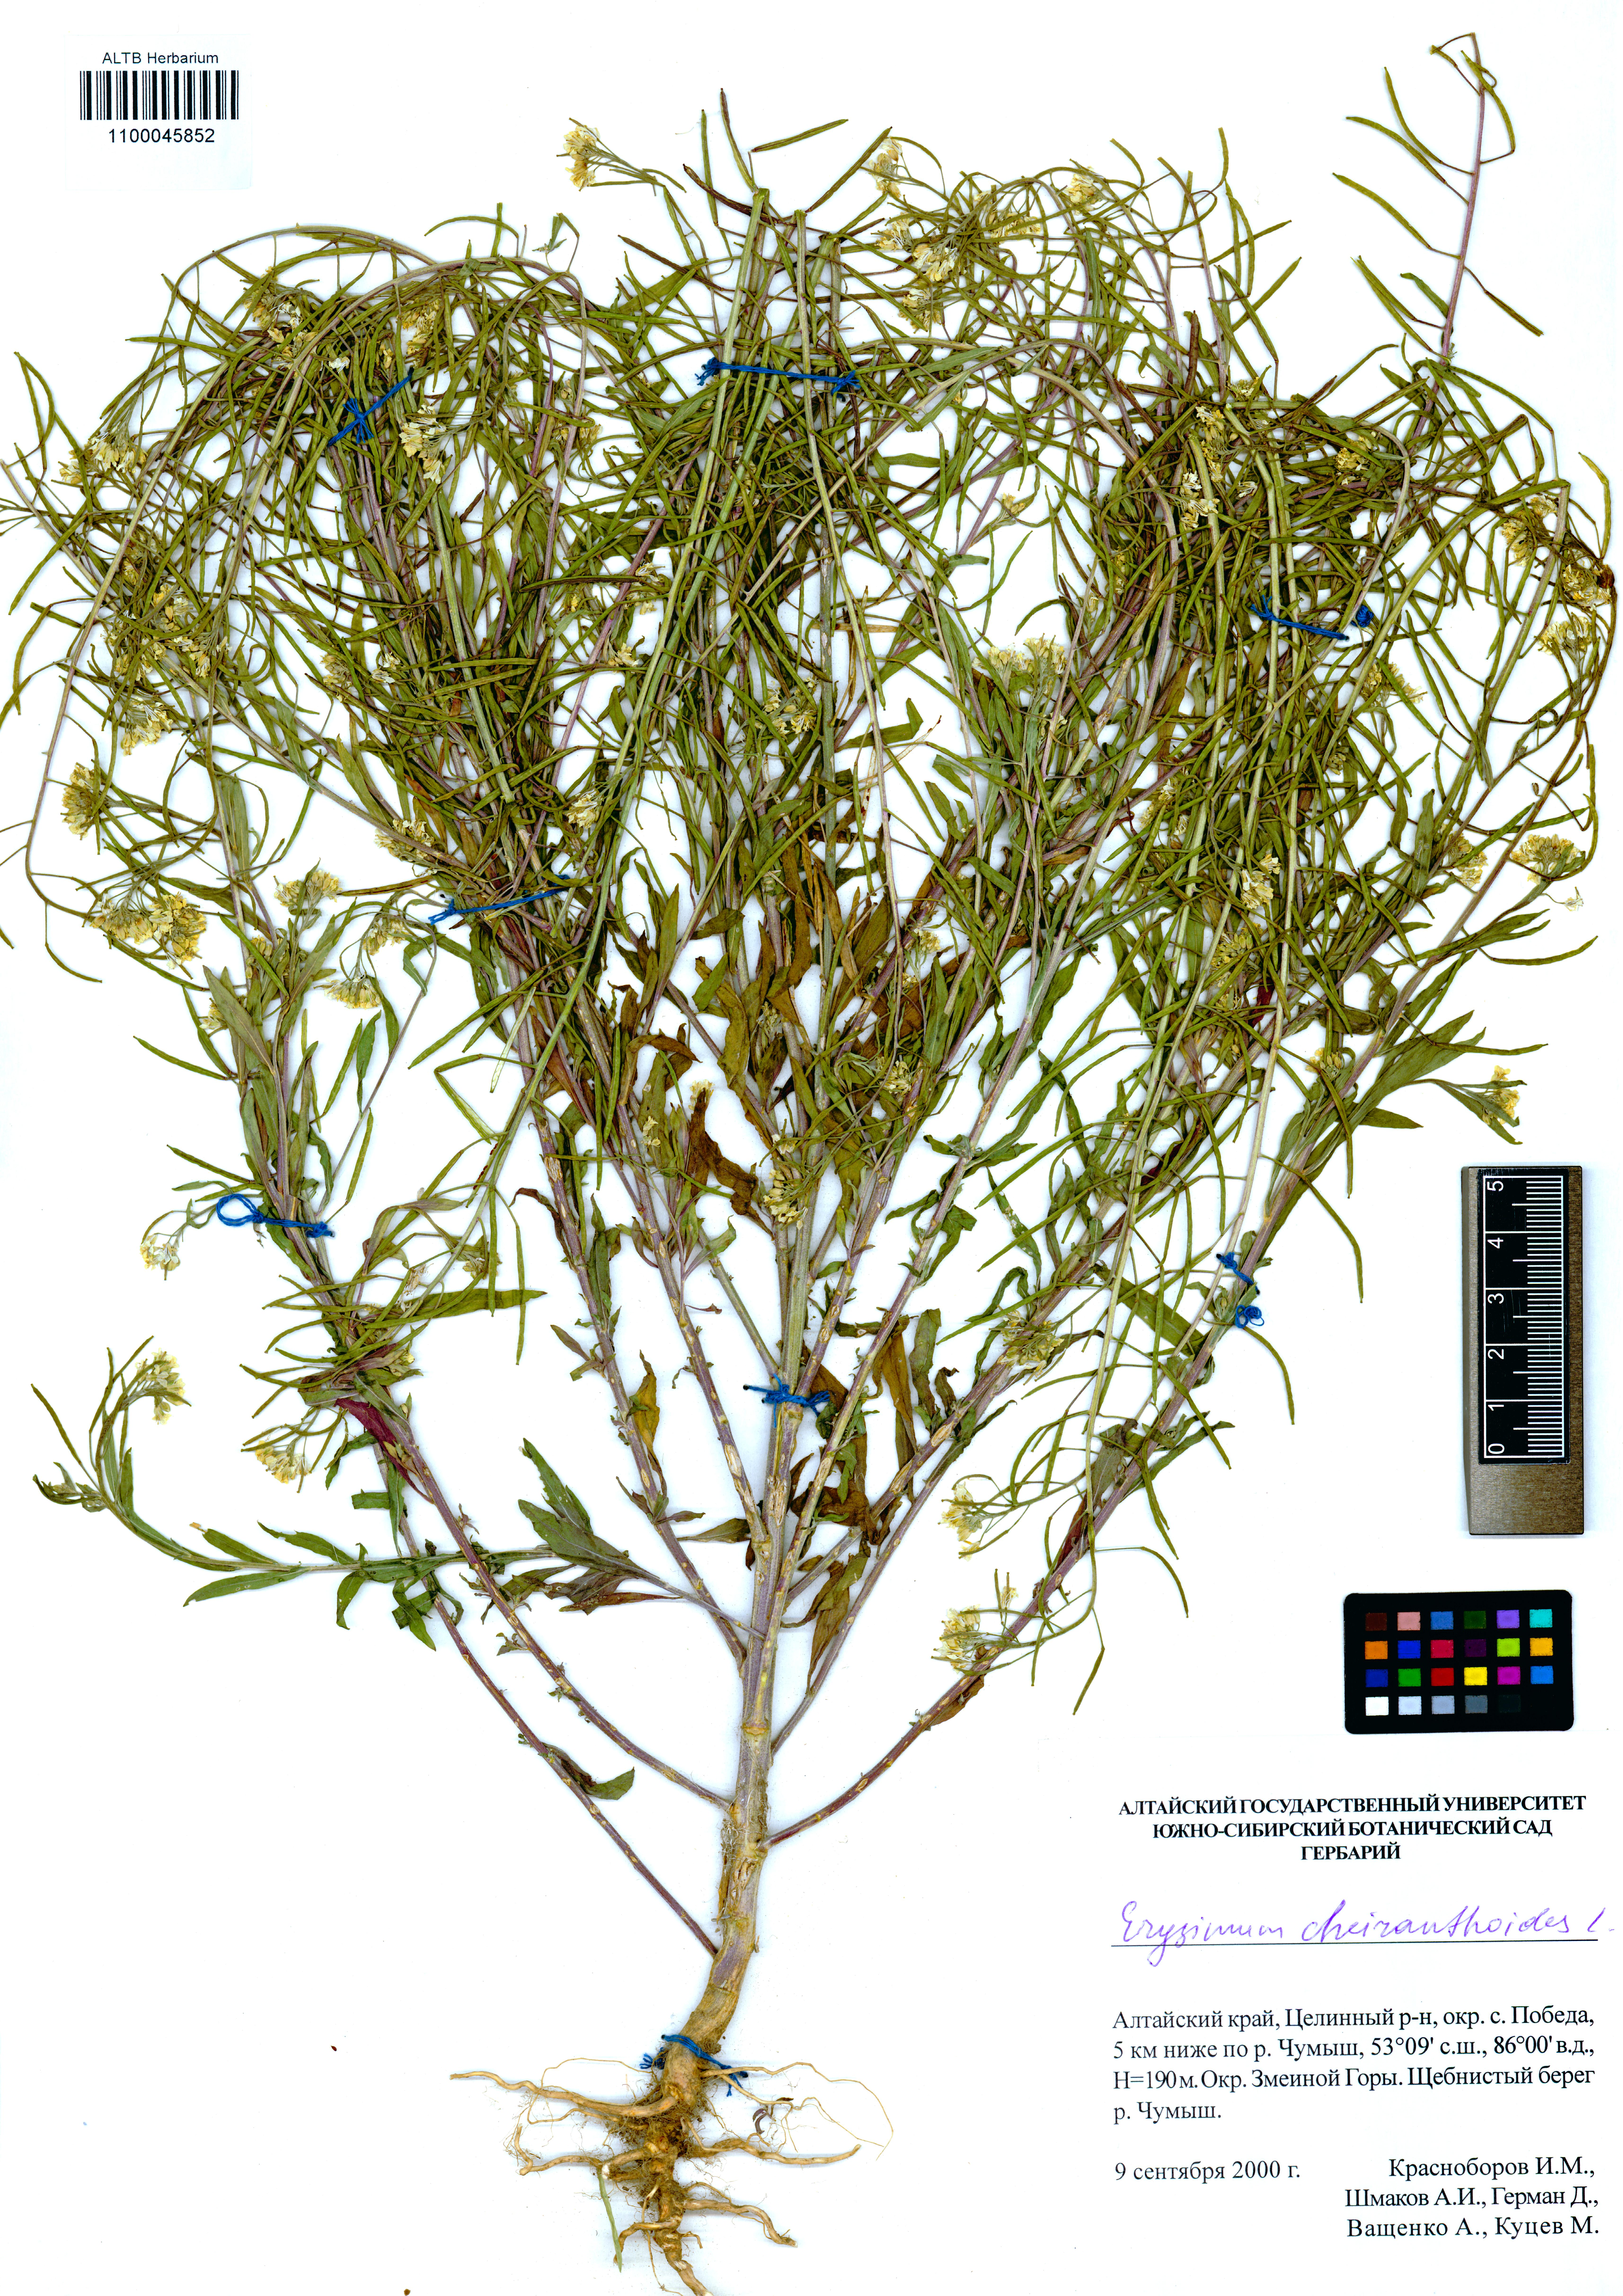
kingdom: Plantae
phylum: Tracheophyta
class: Magnoliopsida
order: Brassicales
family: Brassicaceae
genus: Erysimum
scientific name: Erysimum cheiranthoides
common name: Treacle mustard
